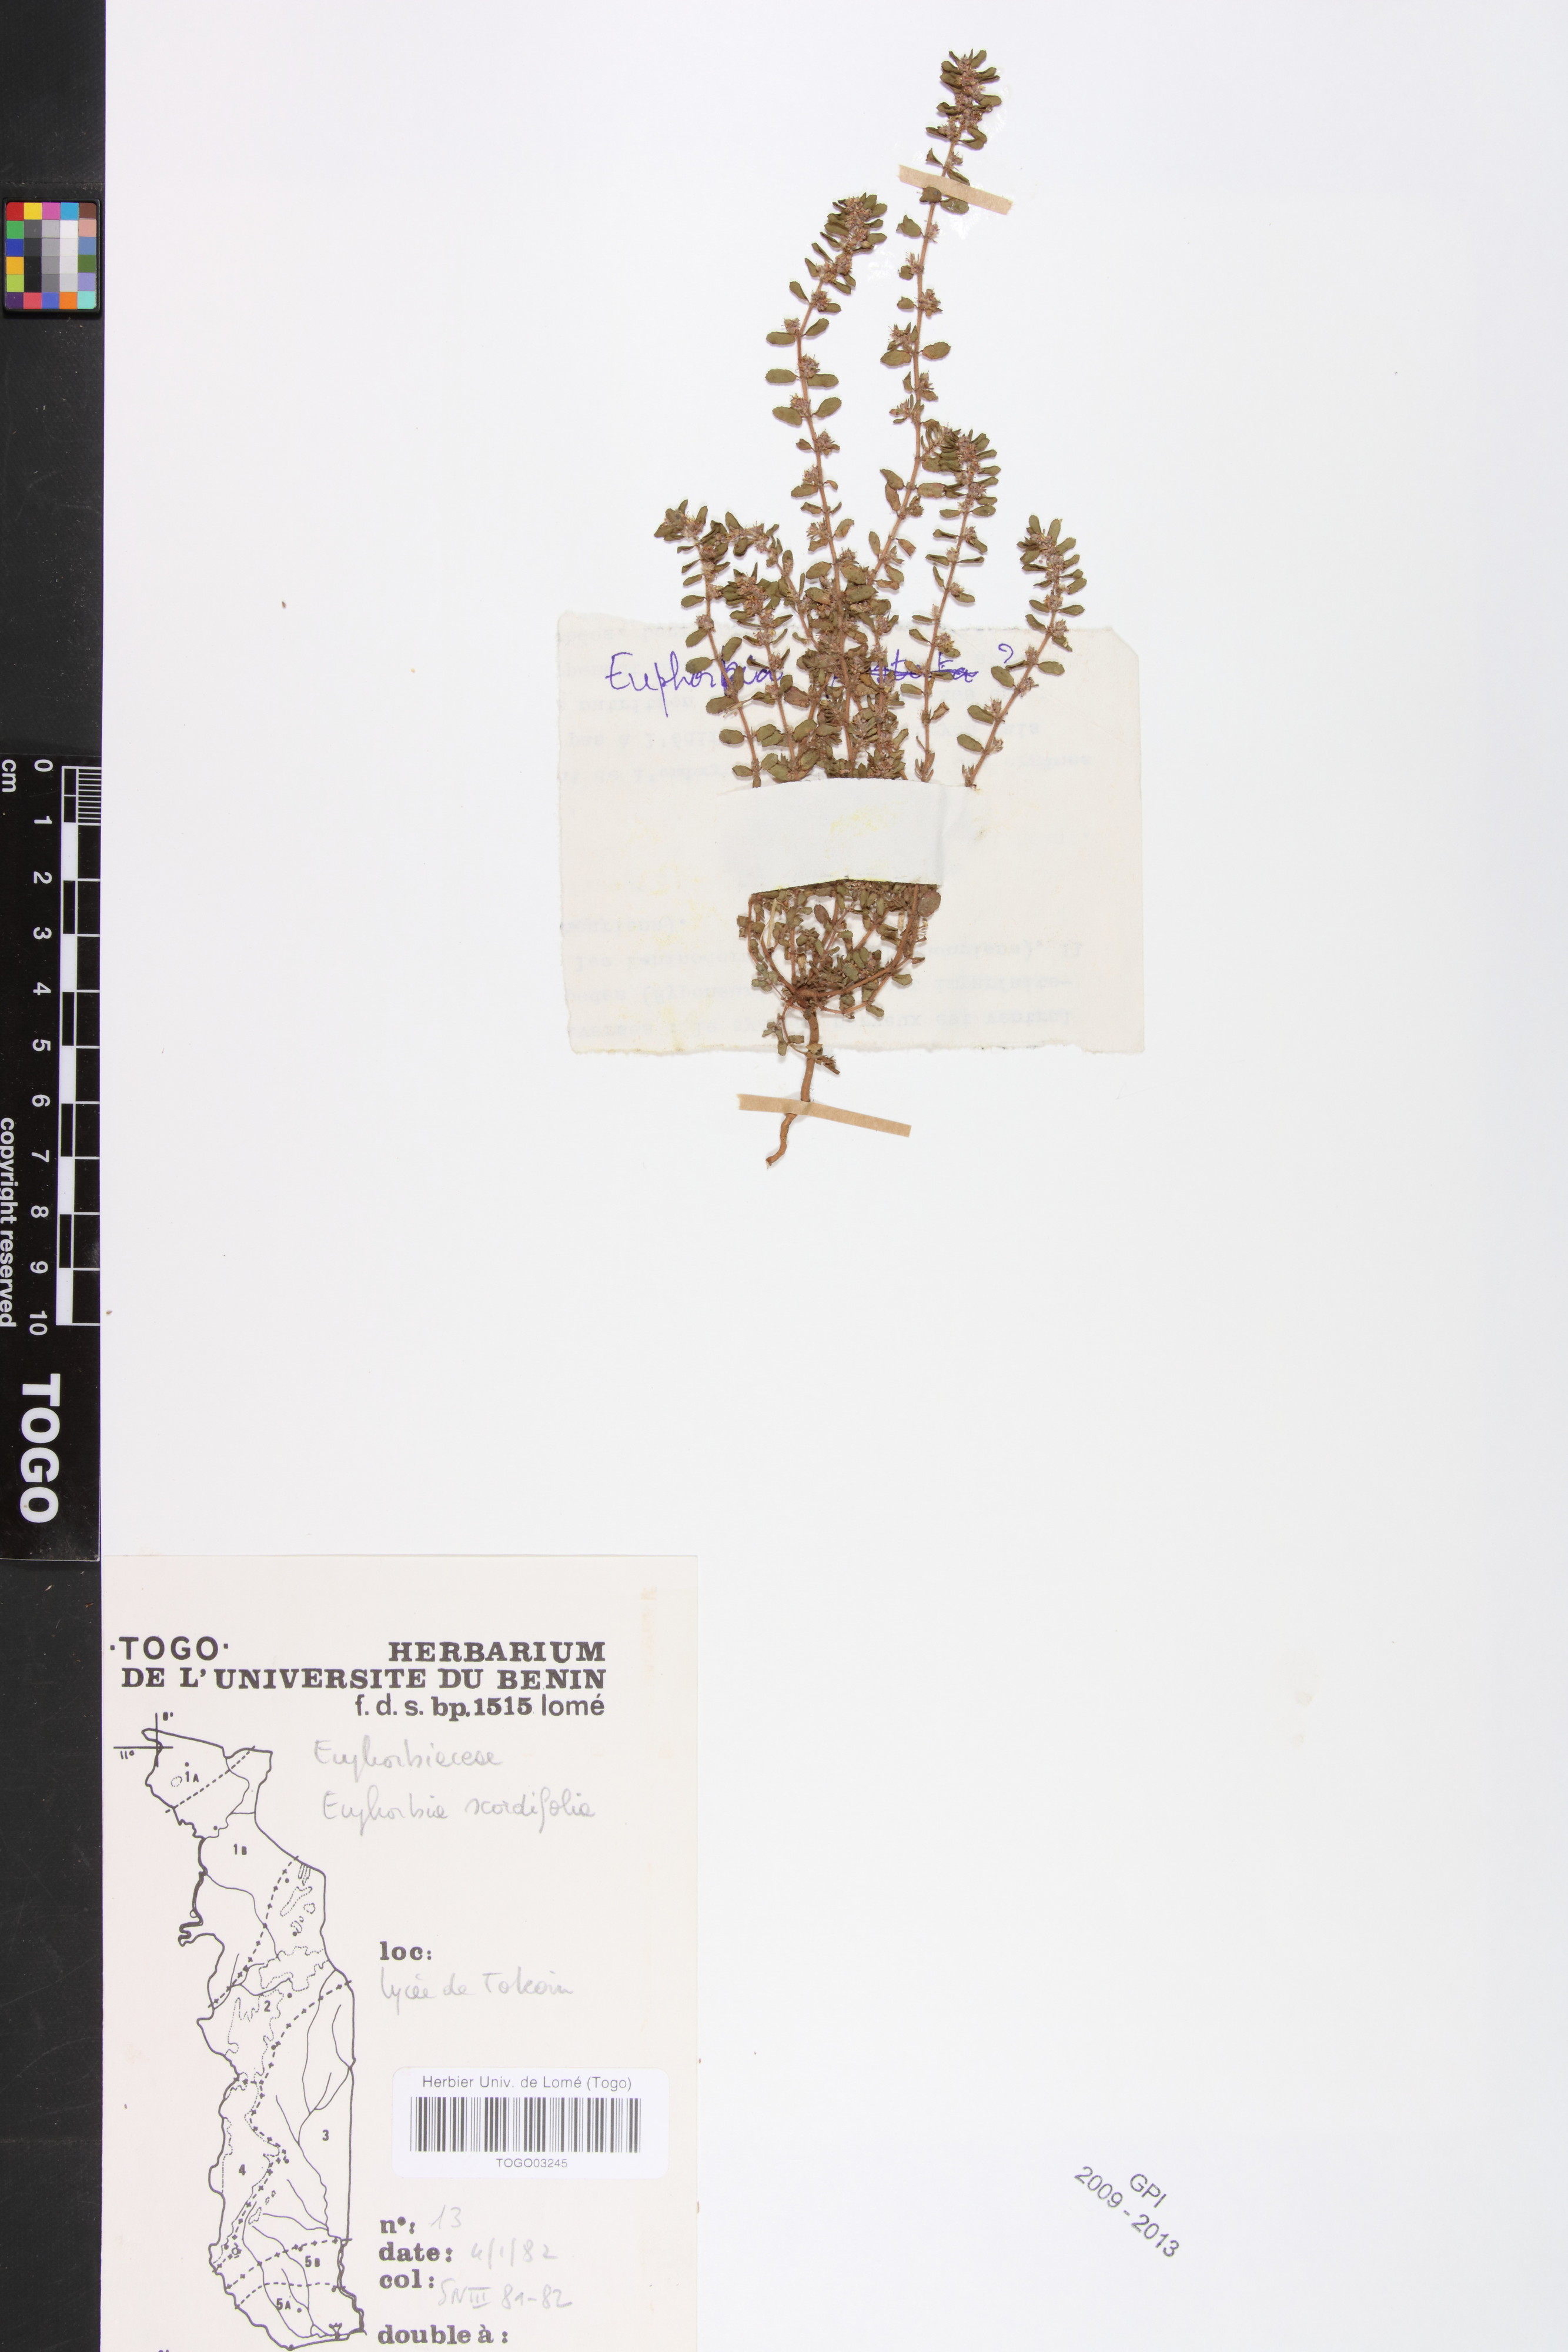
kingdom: Plantae
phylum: Tracheophyta
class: Magnoliopsida
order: Malpighiales
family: Euphorbiaceae
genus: Euphorbia
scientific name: Euphorbia scordiifolia
